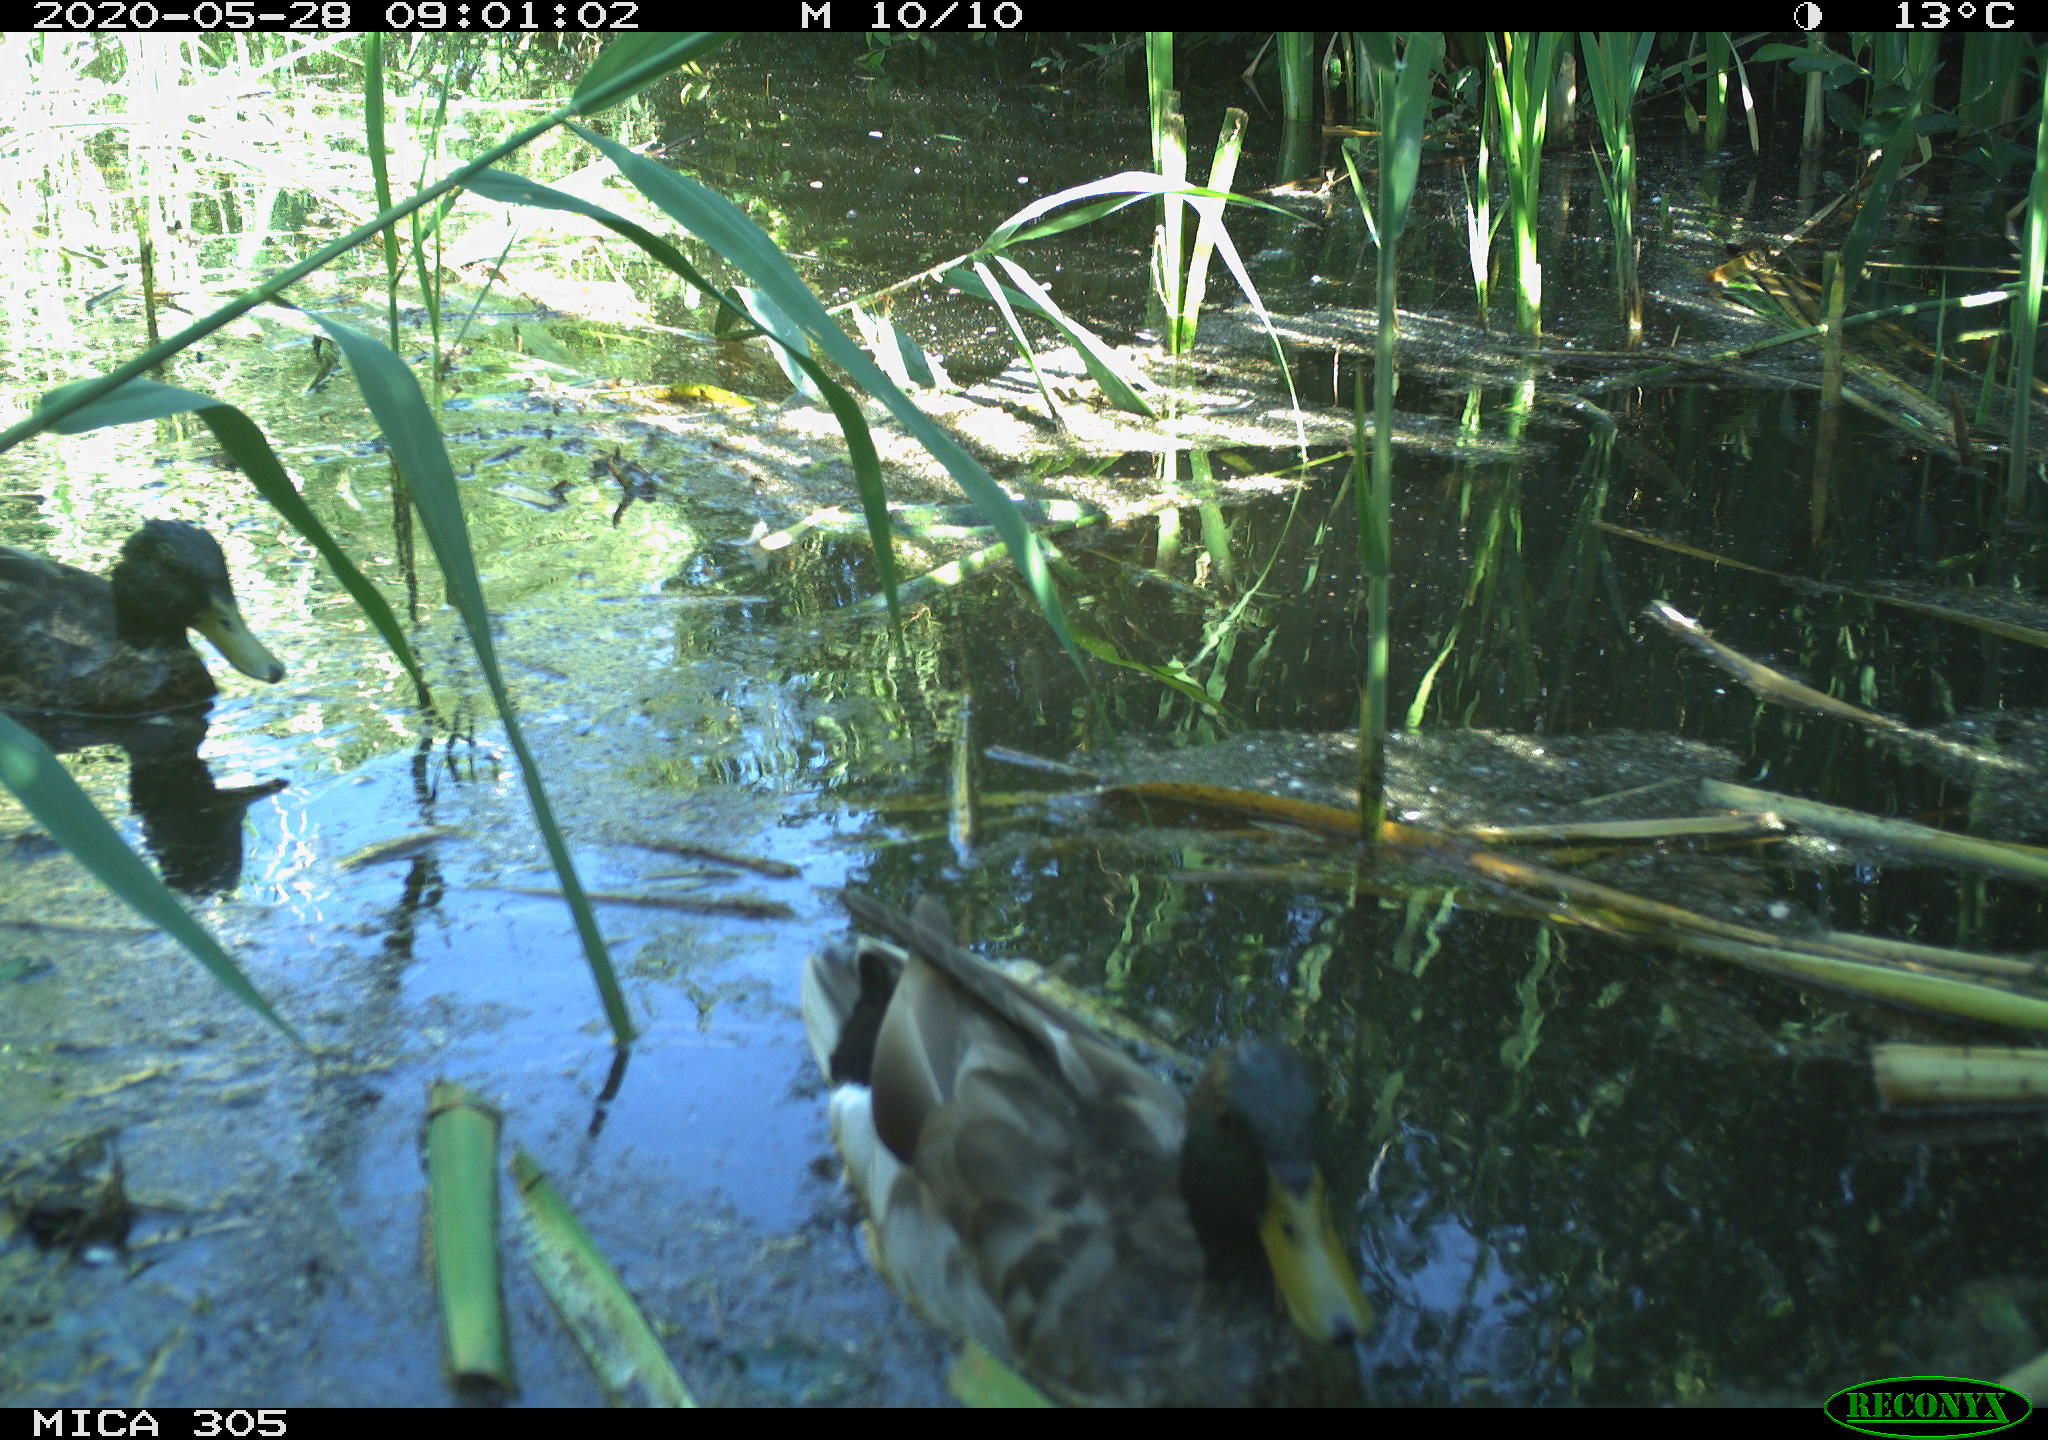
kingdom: Animalia
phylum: Chordata
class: Aves
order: Anseriformes
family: Anatidae
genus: Anas
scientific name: Anas platyrhynchos
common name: Mallard
